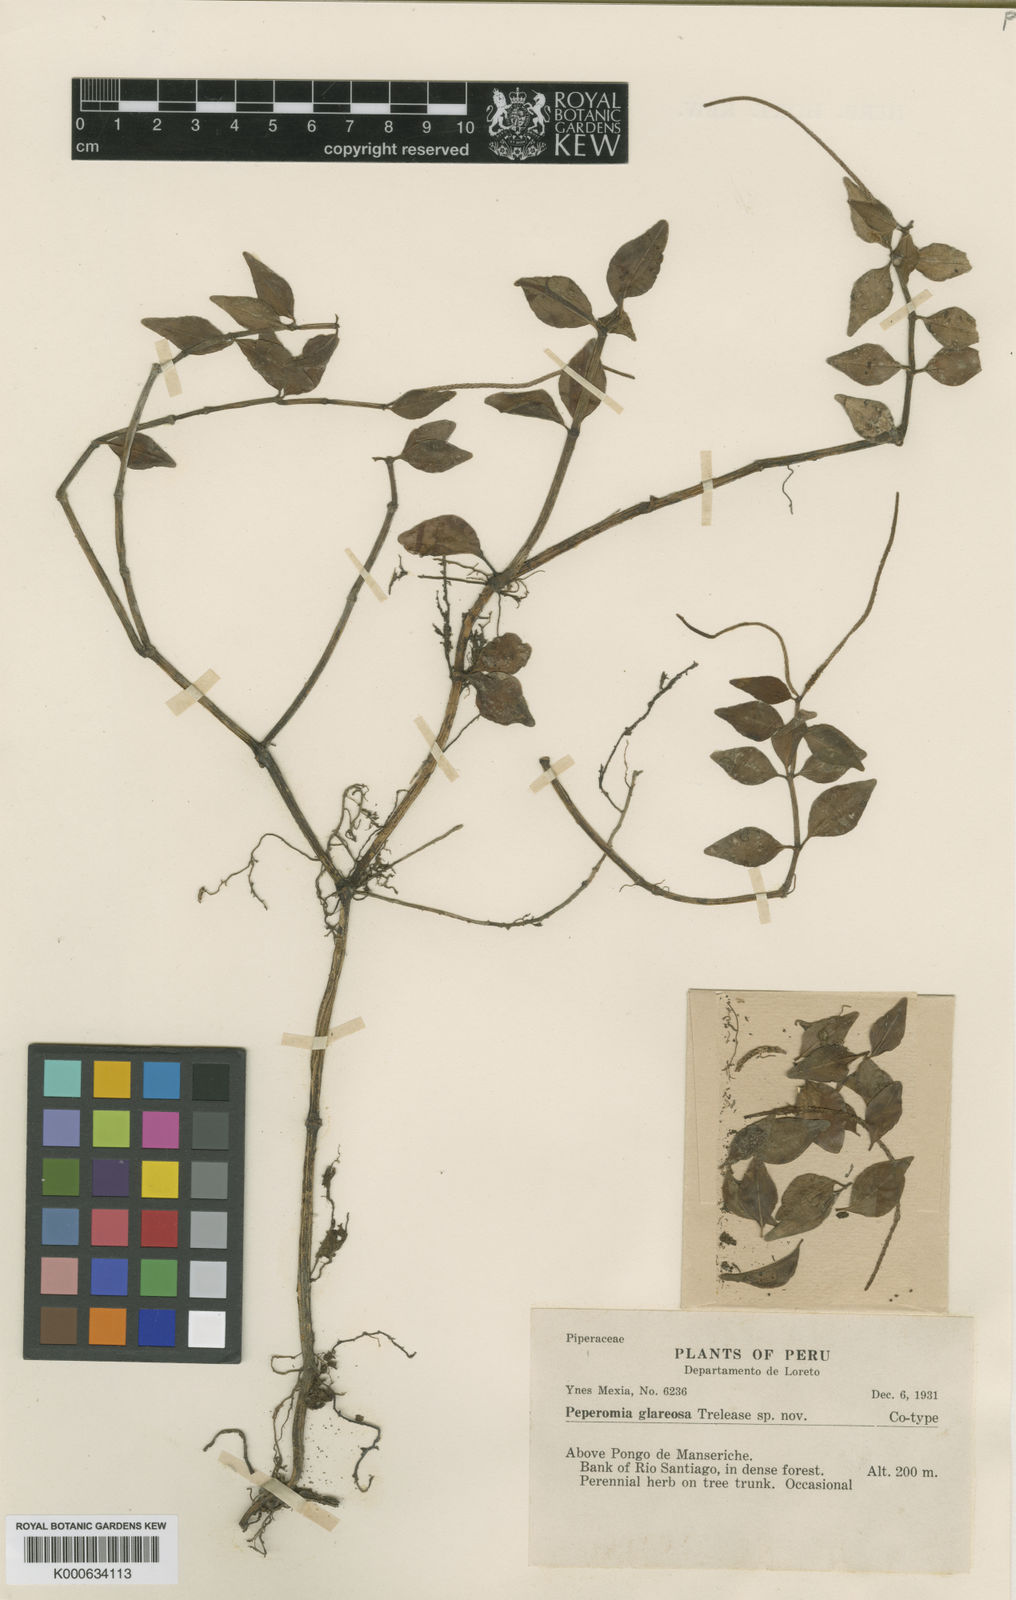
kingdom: Plantae
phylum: Tracheophyta
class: Magnoliopsida
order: Piperales
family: Piperaceae
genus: Peperomia
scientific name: Peperomia glareosa
